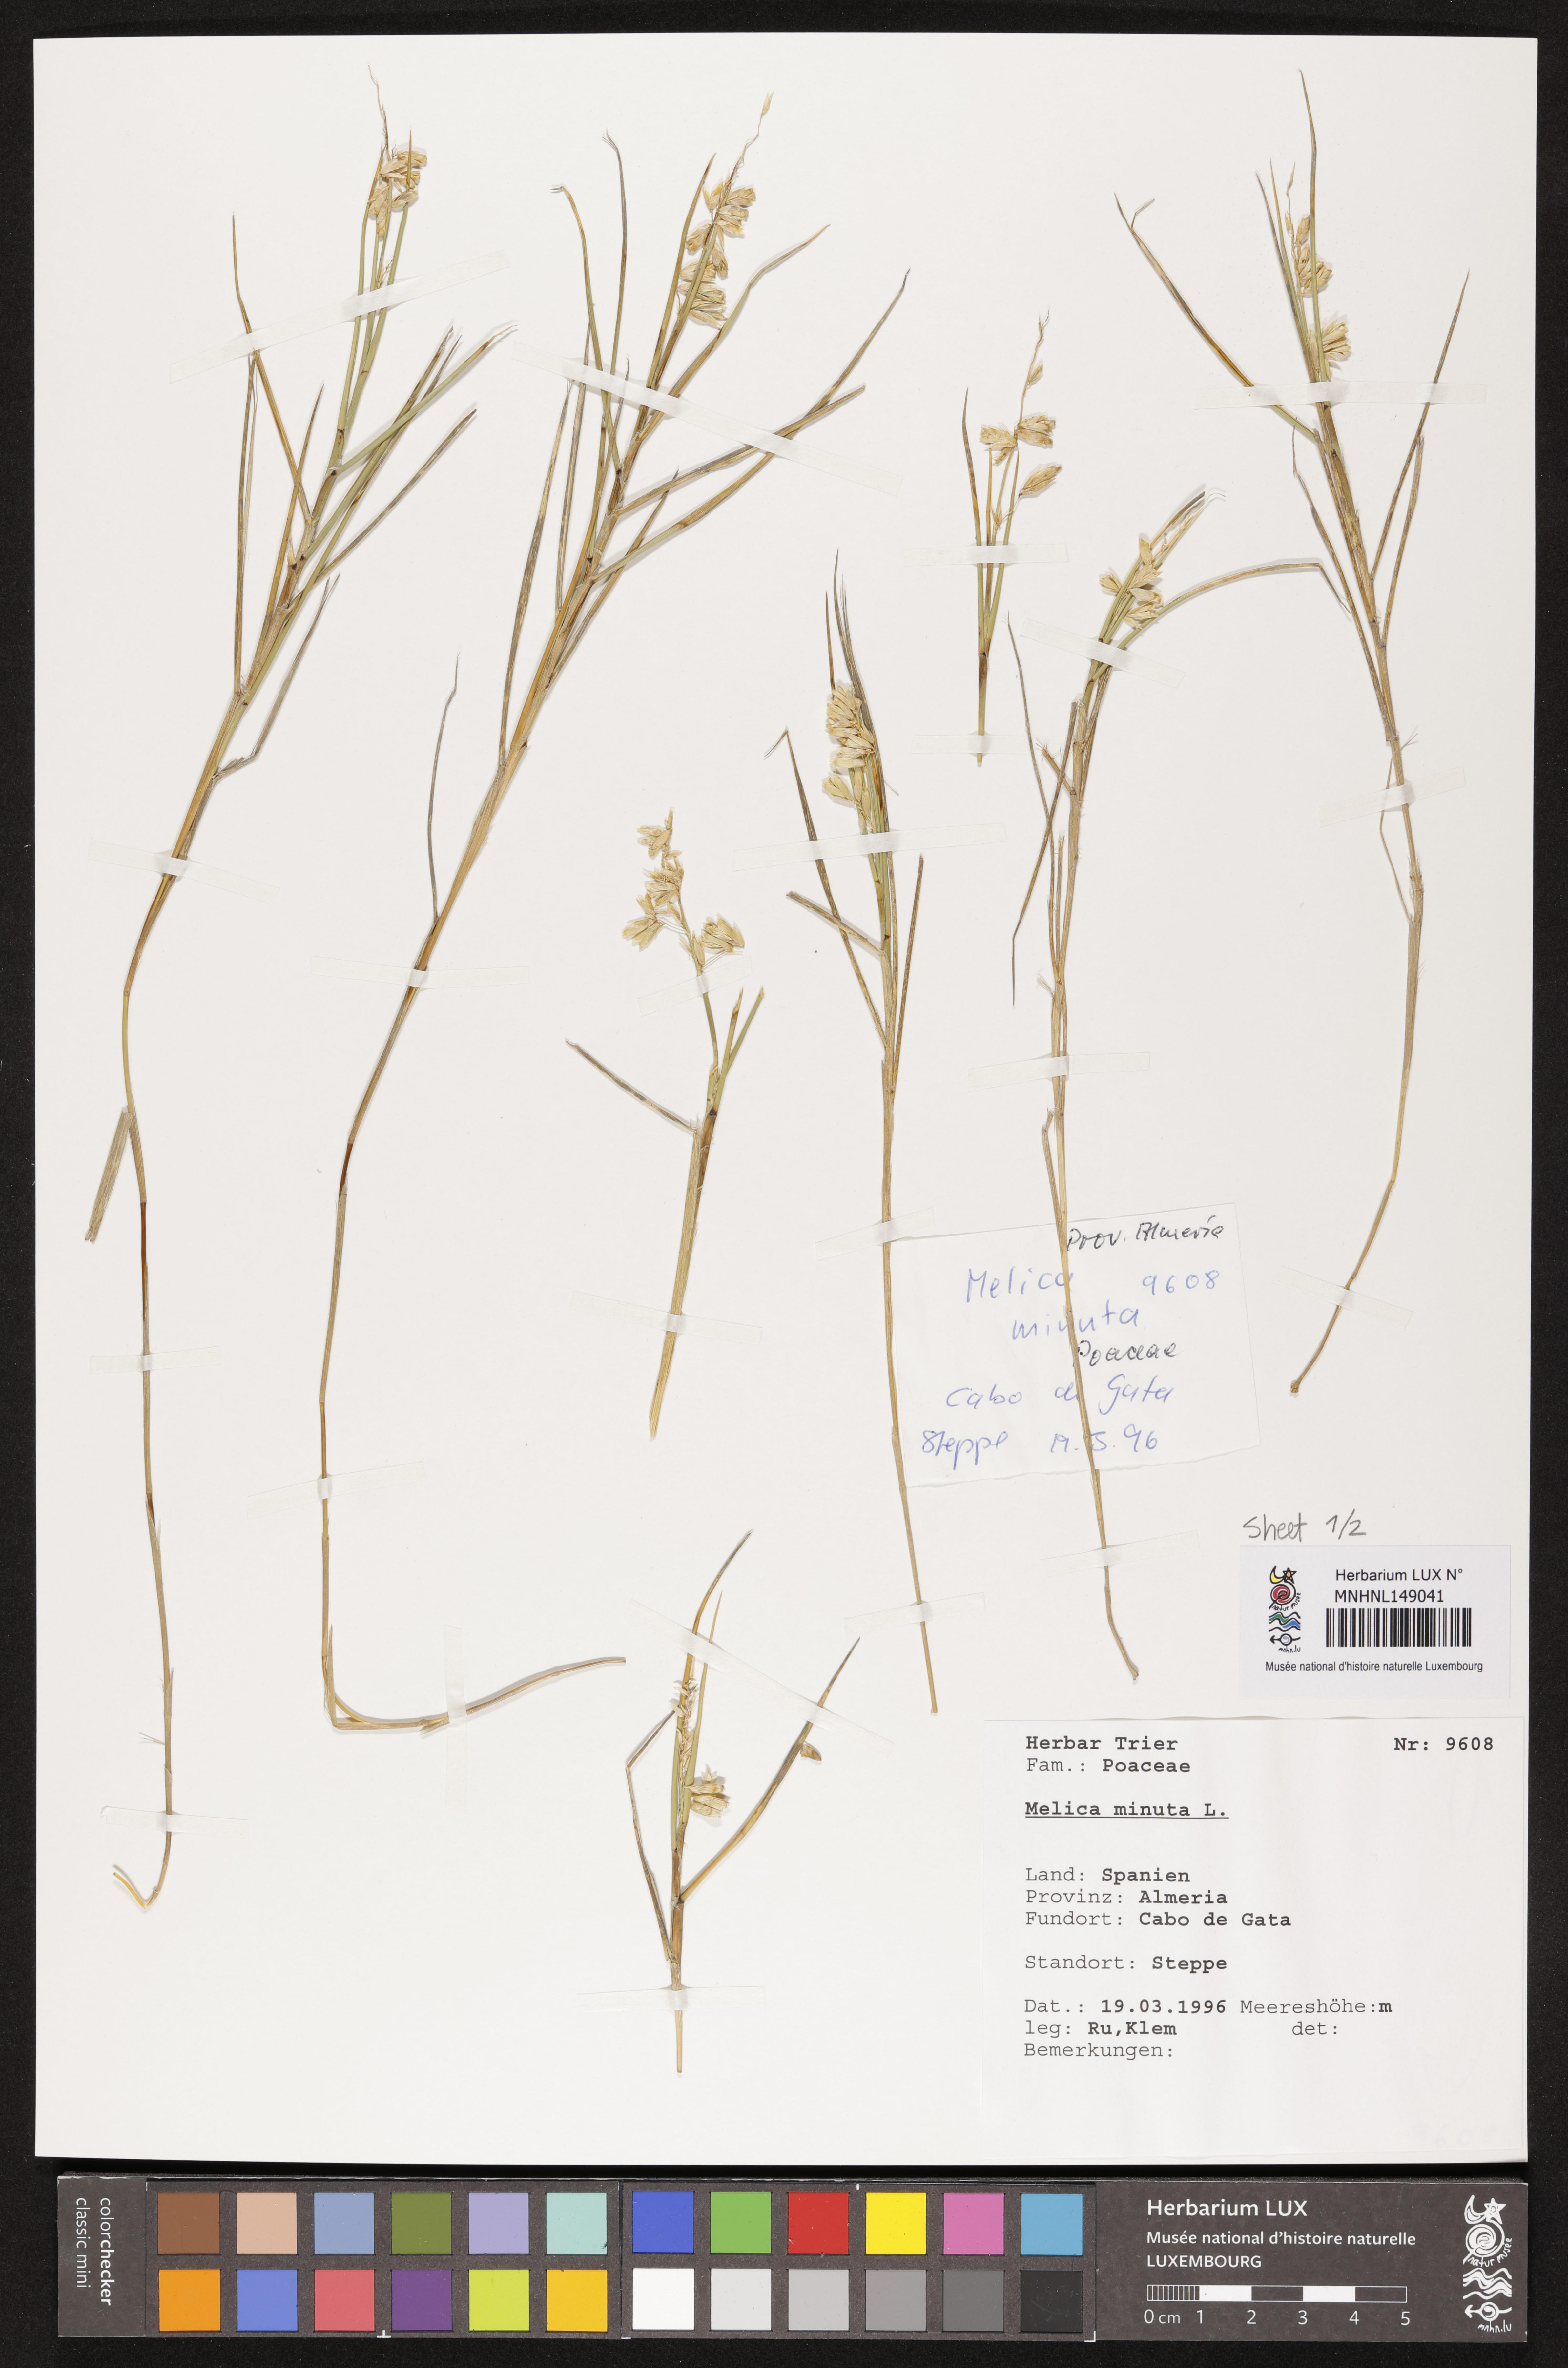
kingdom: Plantae
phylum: Tracheophyta
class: Liliopsida
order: Poales
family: Poaceae
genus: Melica
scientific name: Melica minuta
